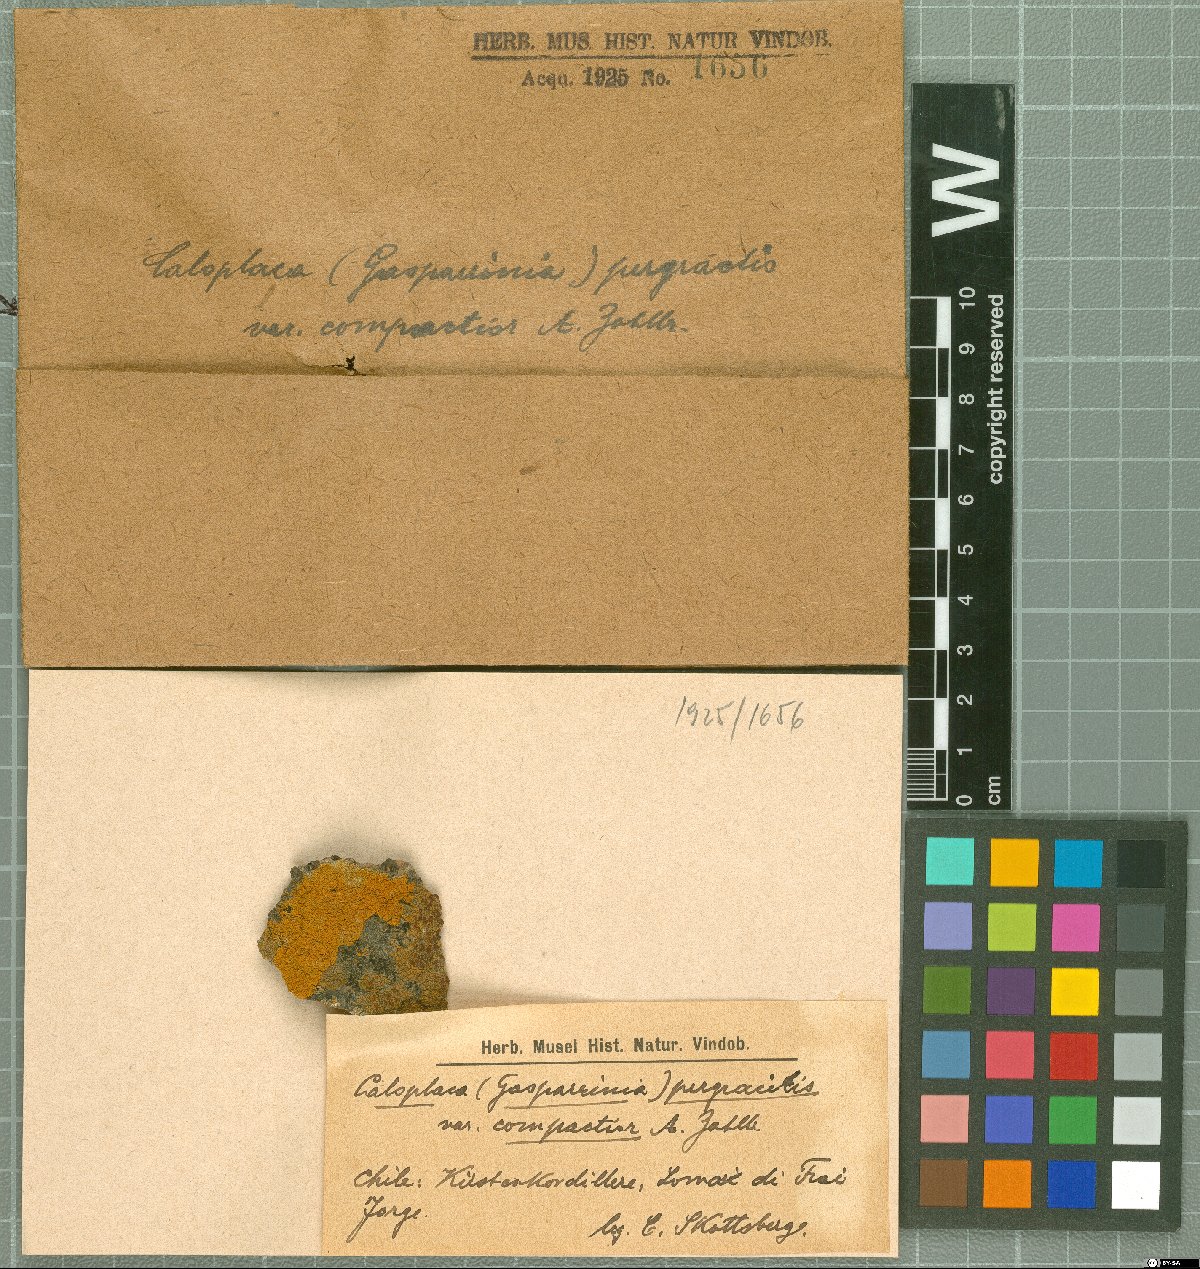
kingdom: Fungi
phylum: Ascomycota
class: Lecanoromycetes
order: Teloschistales
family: Teloschistaceae
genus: Caloplaca
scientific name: Caloplaca
